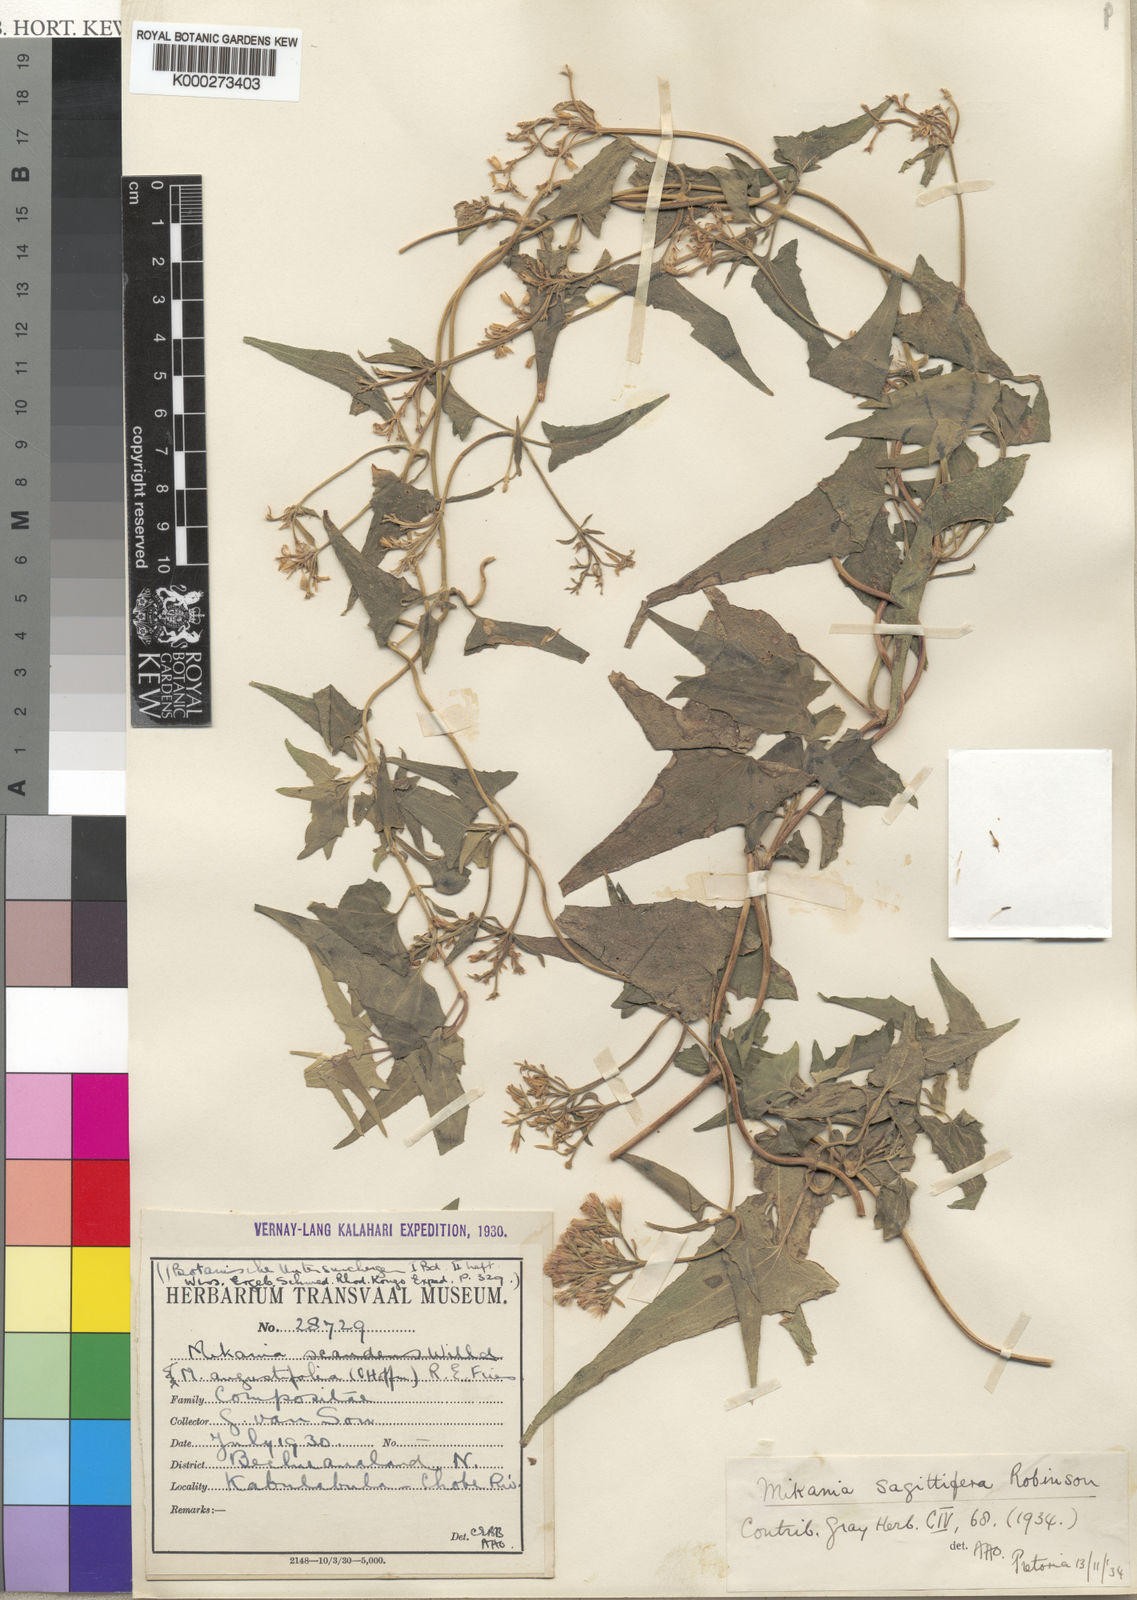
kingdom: Plantae
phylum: Tracheophyta
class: Magnoliopsida
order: Asterales
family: Asteraceae
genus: Mikania
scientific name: Mikania sagittifera
